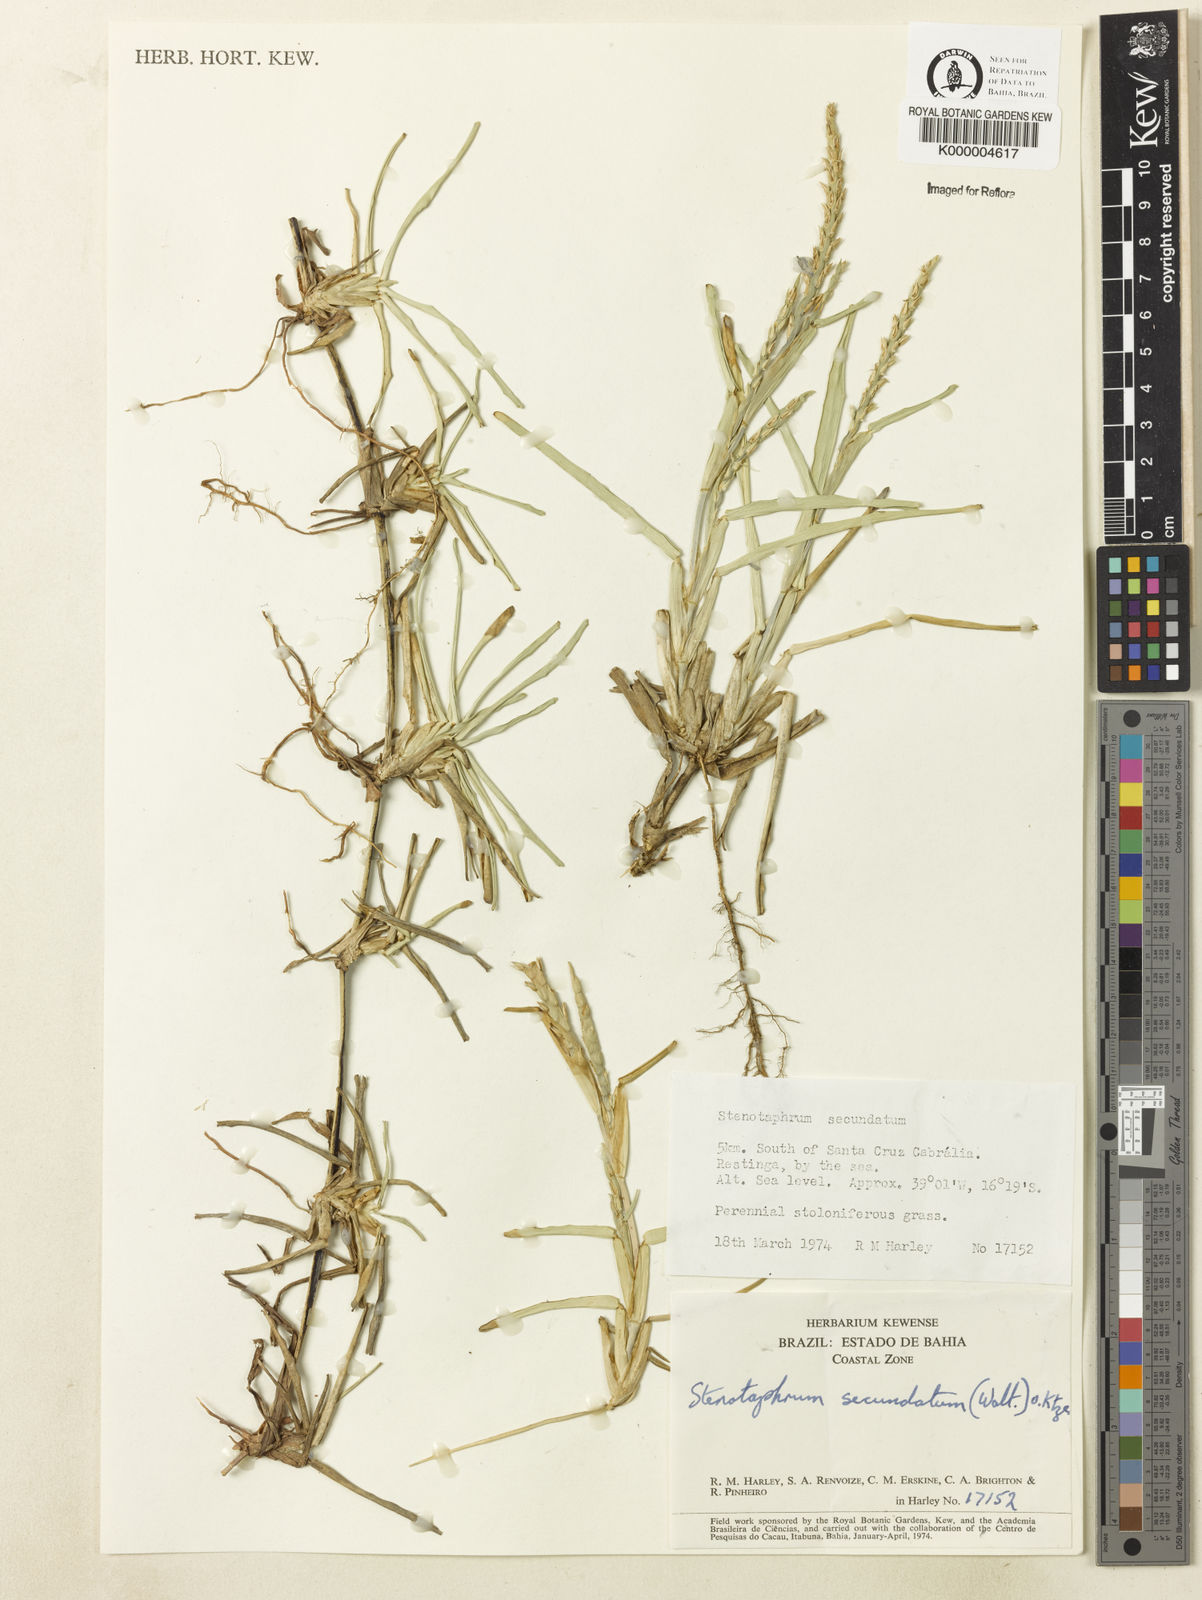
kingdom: Plantae
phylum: Tracheophyta
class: Liliopsida
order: Poales
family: Poaceae
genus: Stenotaphrum
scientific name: Stenotaphrum secundatum
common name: St. augustine grass
